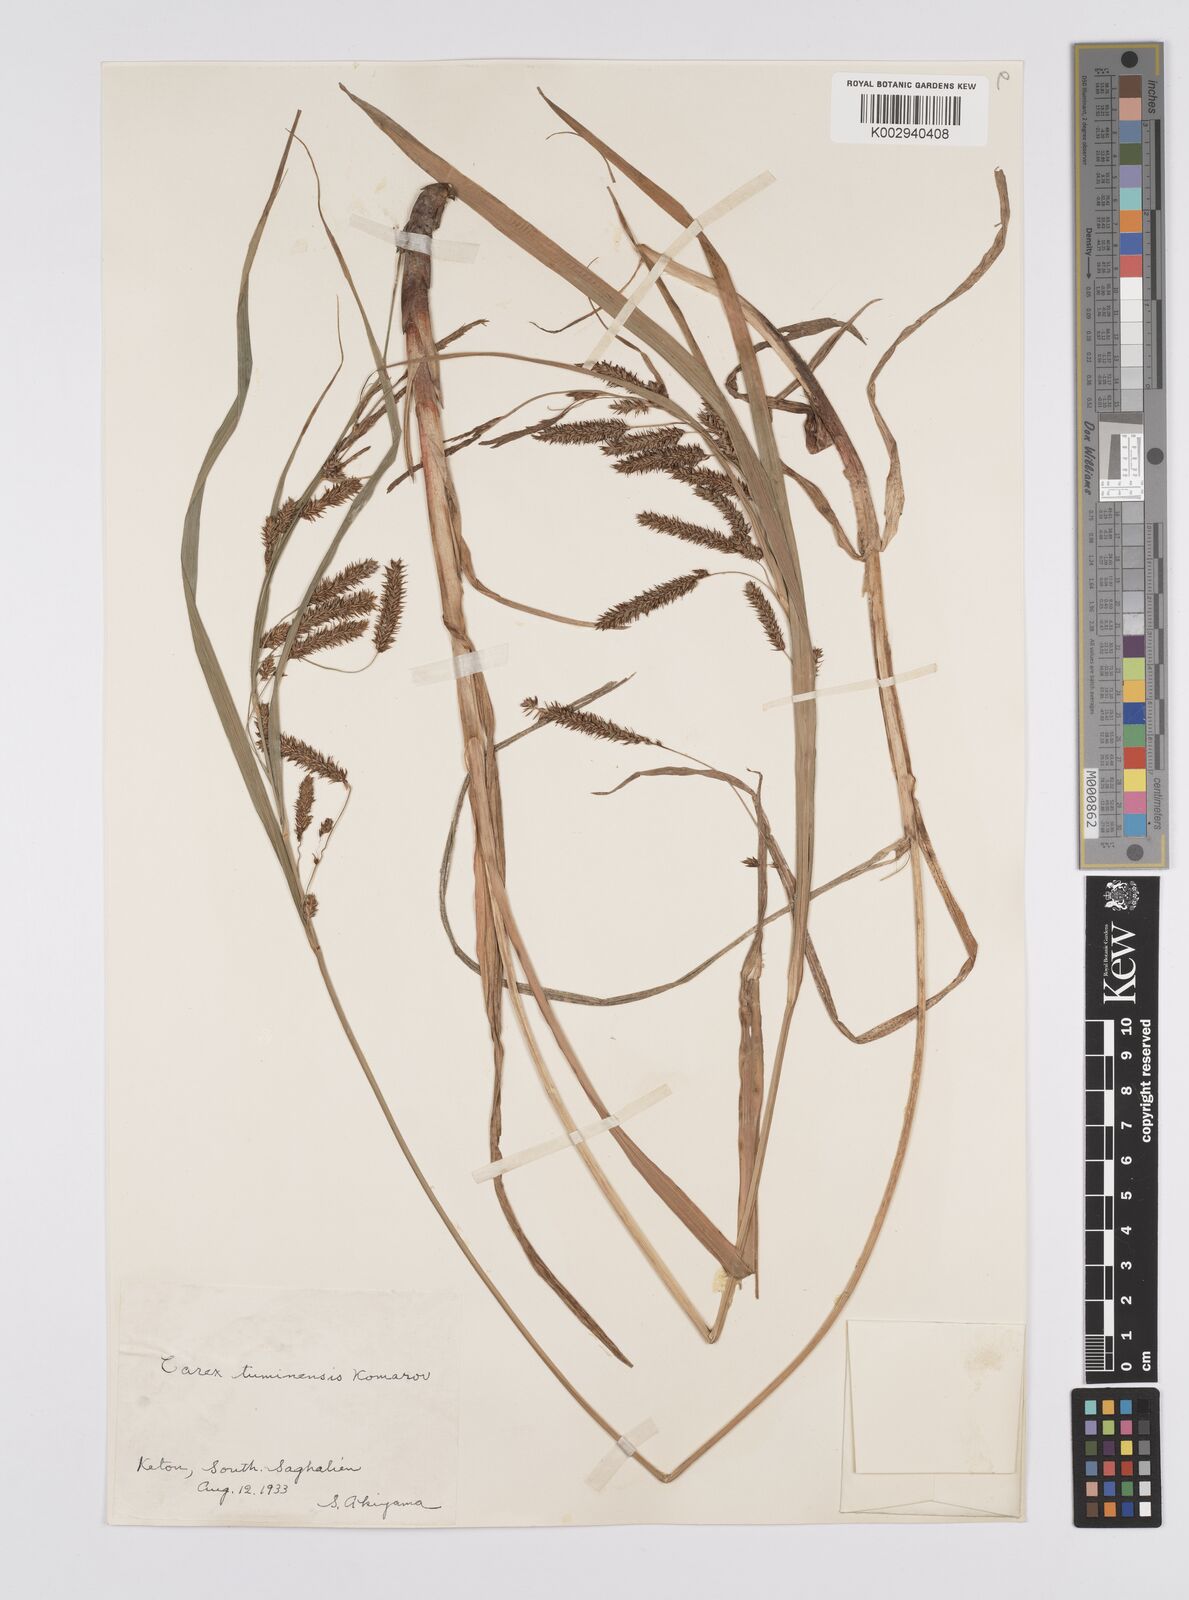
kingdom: Plantae
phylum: Tracheophyta
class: Liliopsida
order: Poales
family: Cyperaceae
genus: Carex
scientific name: Carex tuminensis
